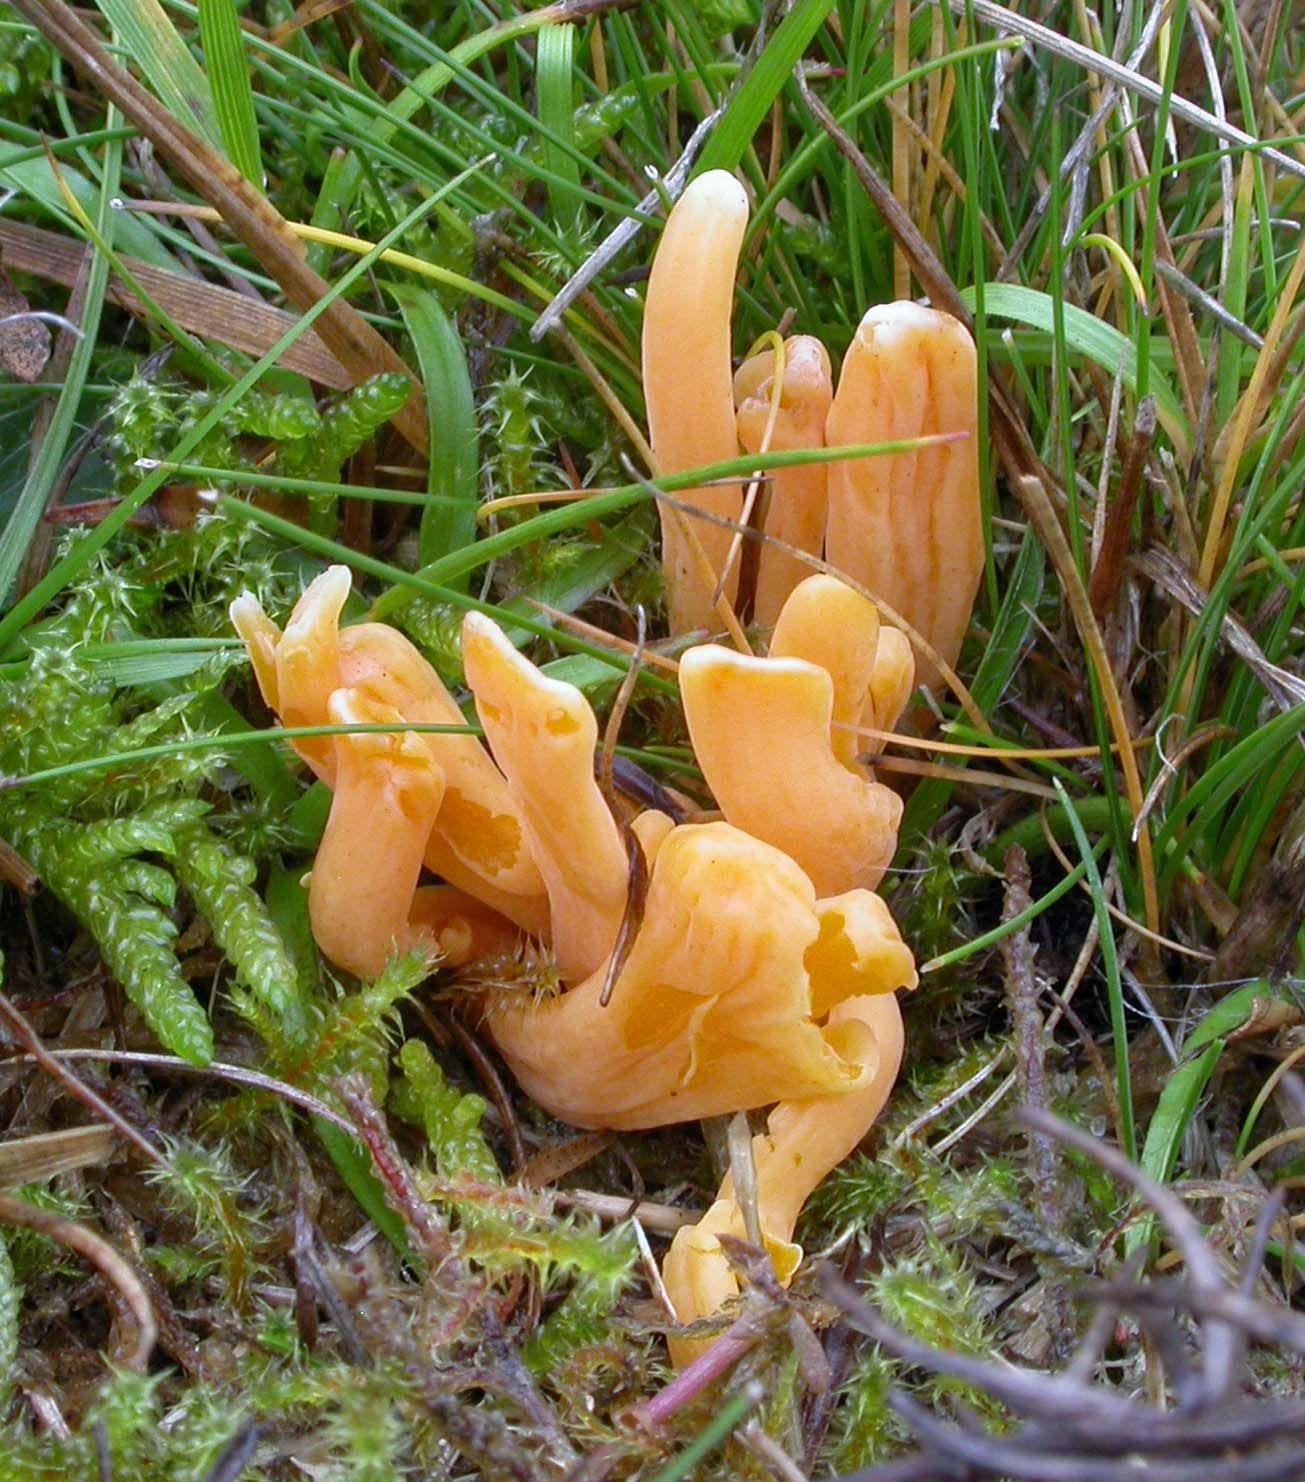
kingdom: Fungi
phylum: Basidiomycota
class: Agaricomycetes
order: Agaricales
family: Clavariaceae
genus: Clavulinopsis
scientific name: Clavulinopsis luteoalba
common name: abrikos-køllesvamp
